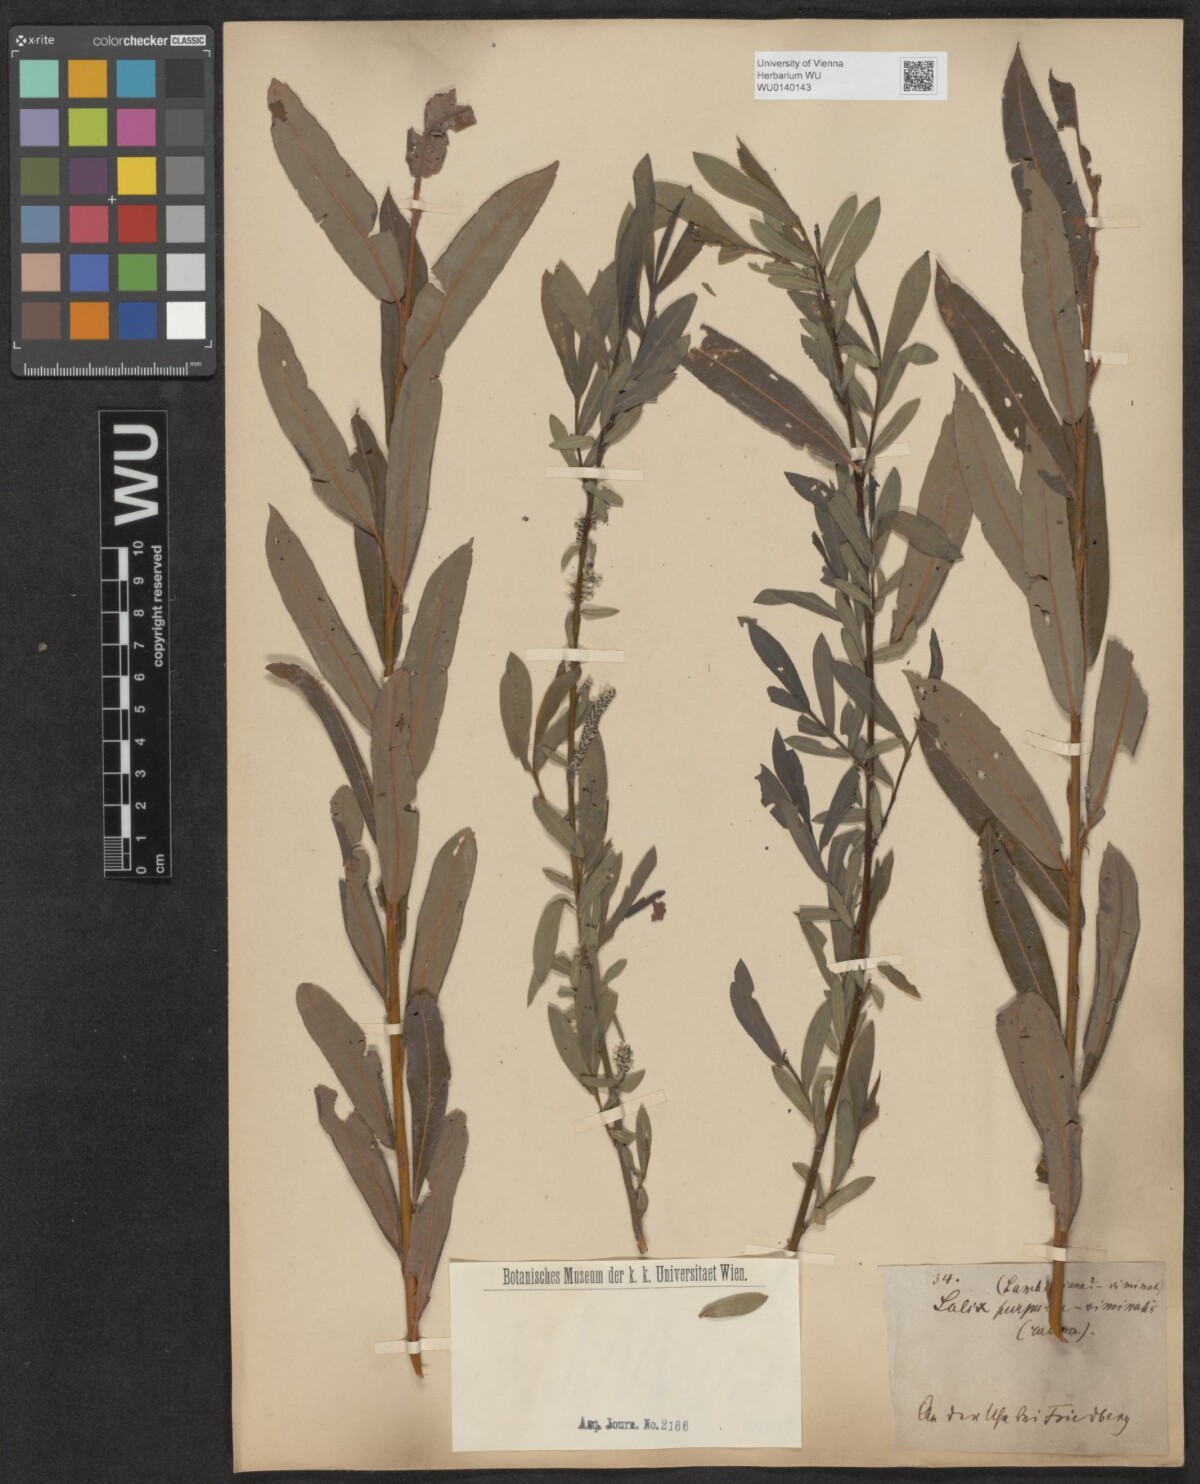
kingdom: Plantae
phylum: Tracheophyta
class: Magnoliopsida
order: Malpighiales
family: Salicaceae
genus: Salix
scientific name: Salix mollissima
